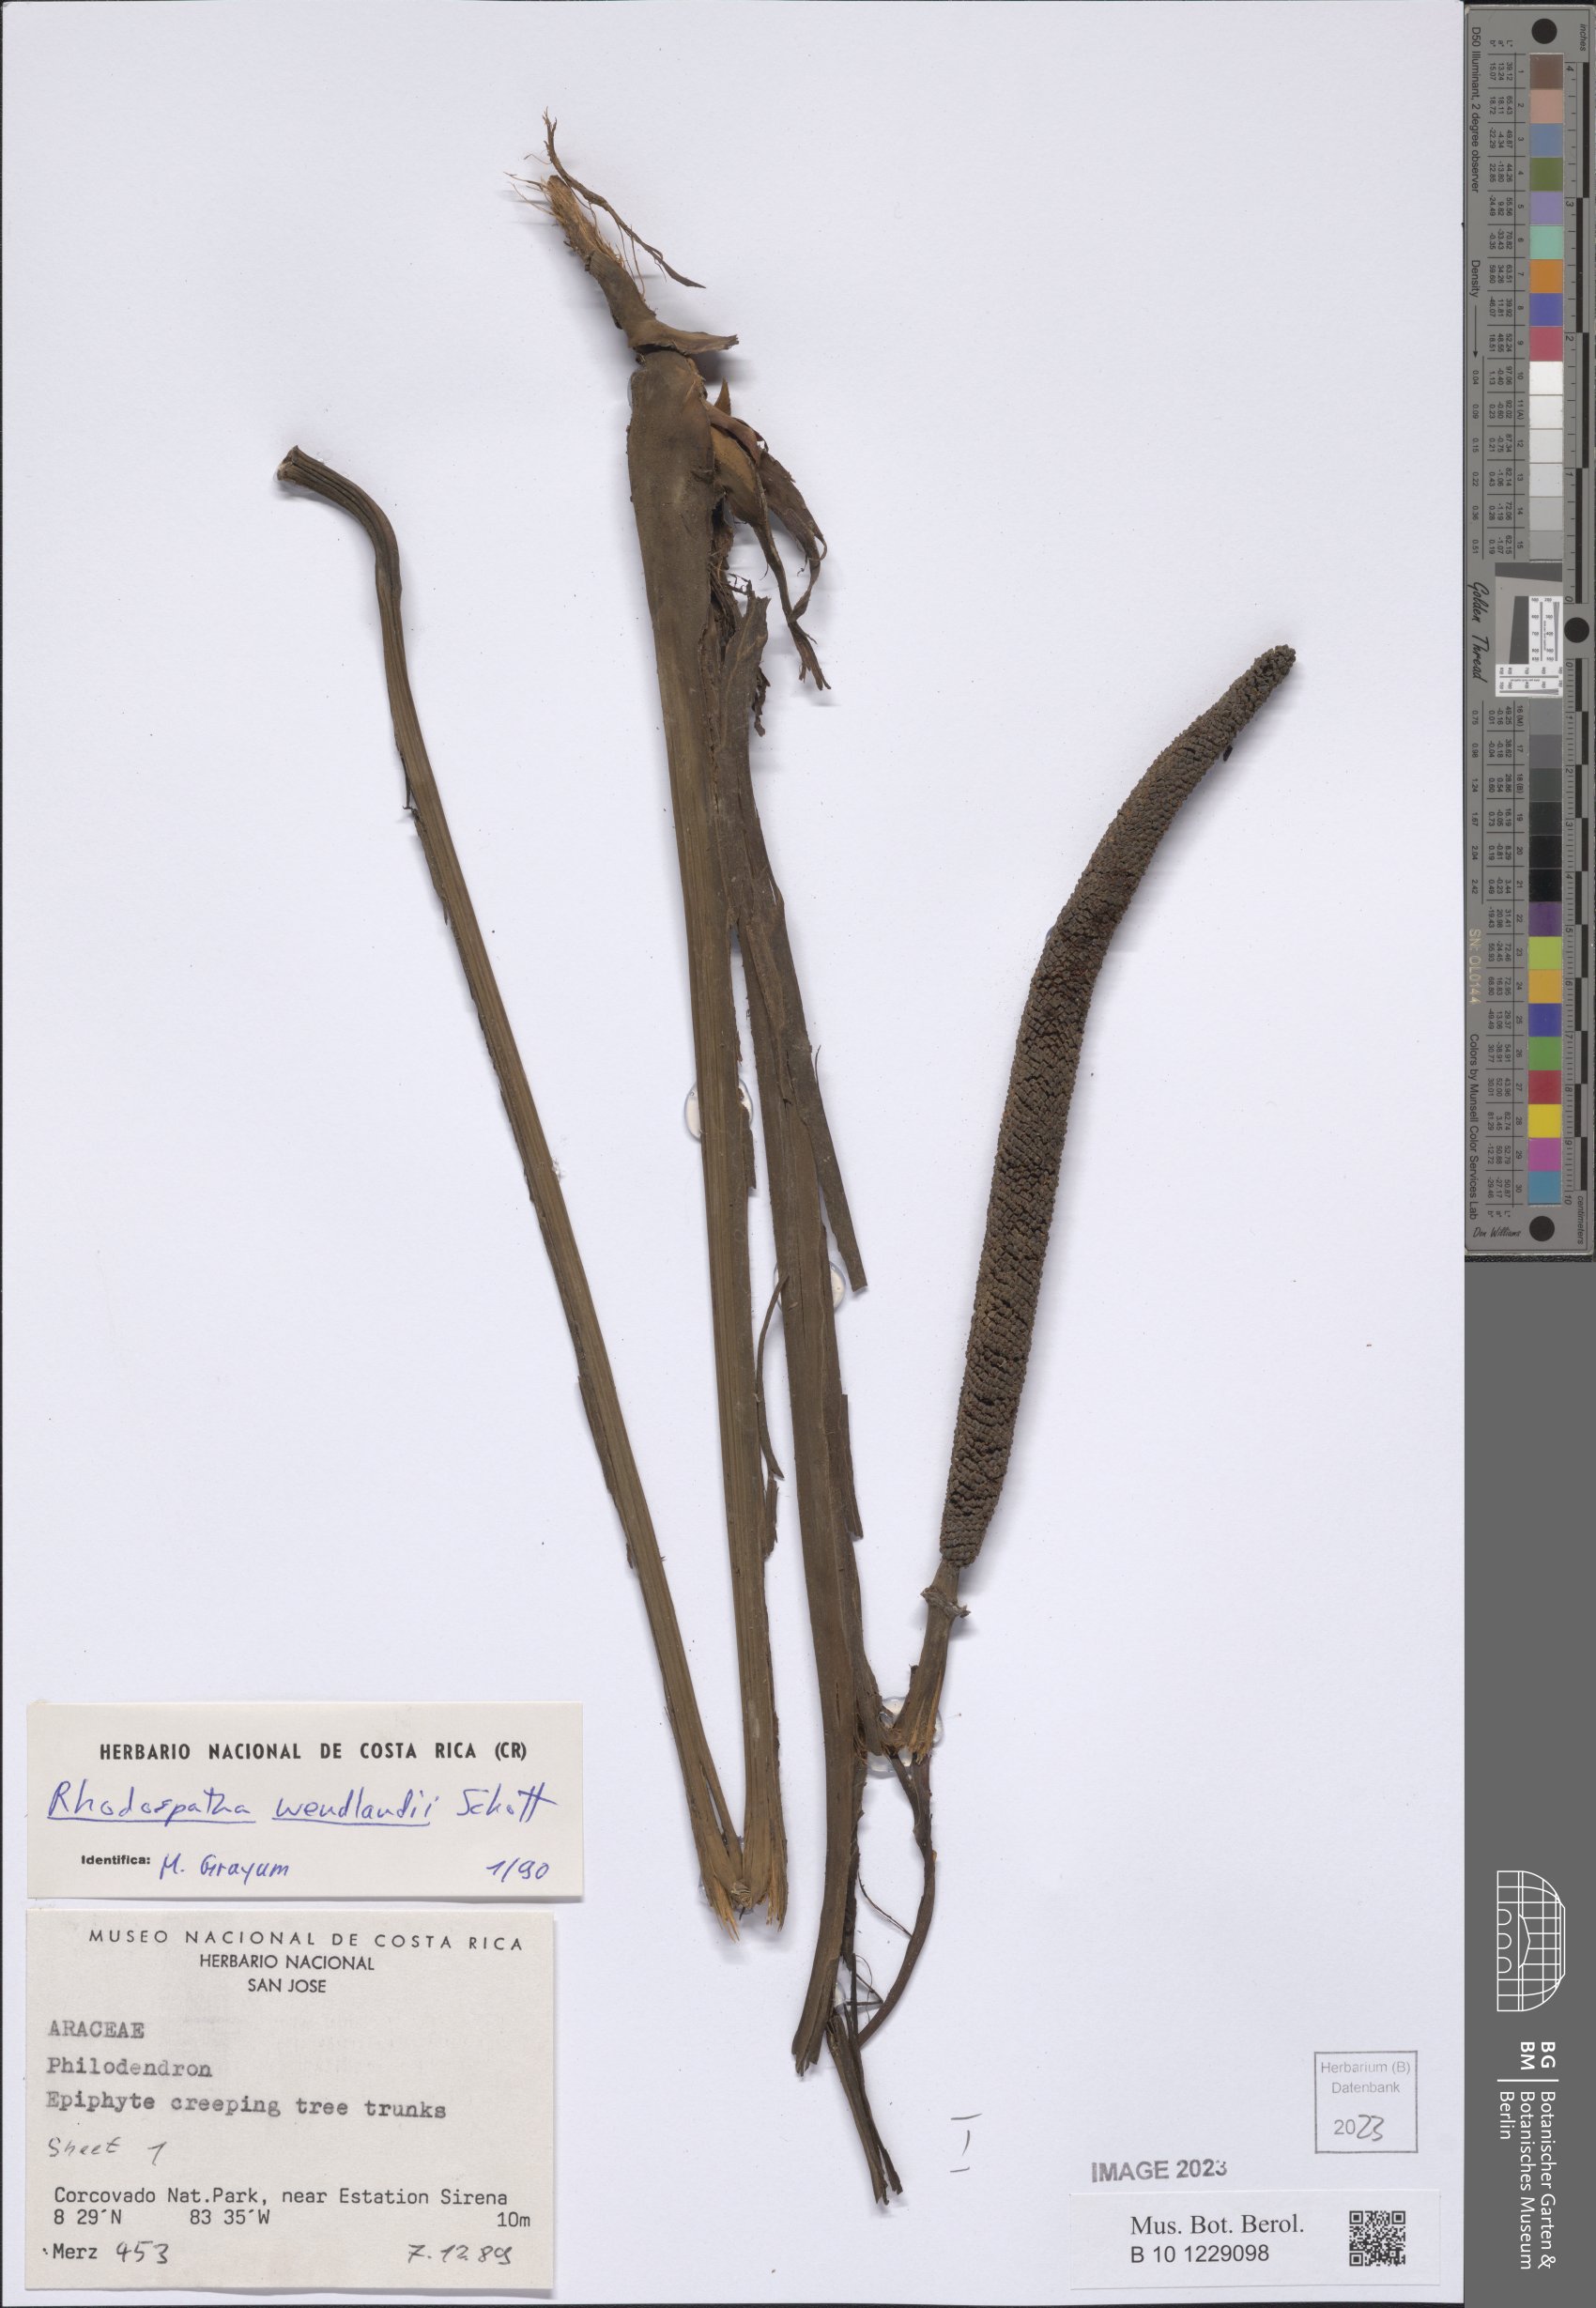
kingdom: Plantae
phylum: Tracheophyta
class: Liliopsida
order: Alismatales
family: Araceae
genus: Rhodospatha
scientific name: Rhodospatha wendlandii
